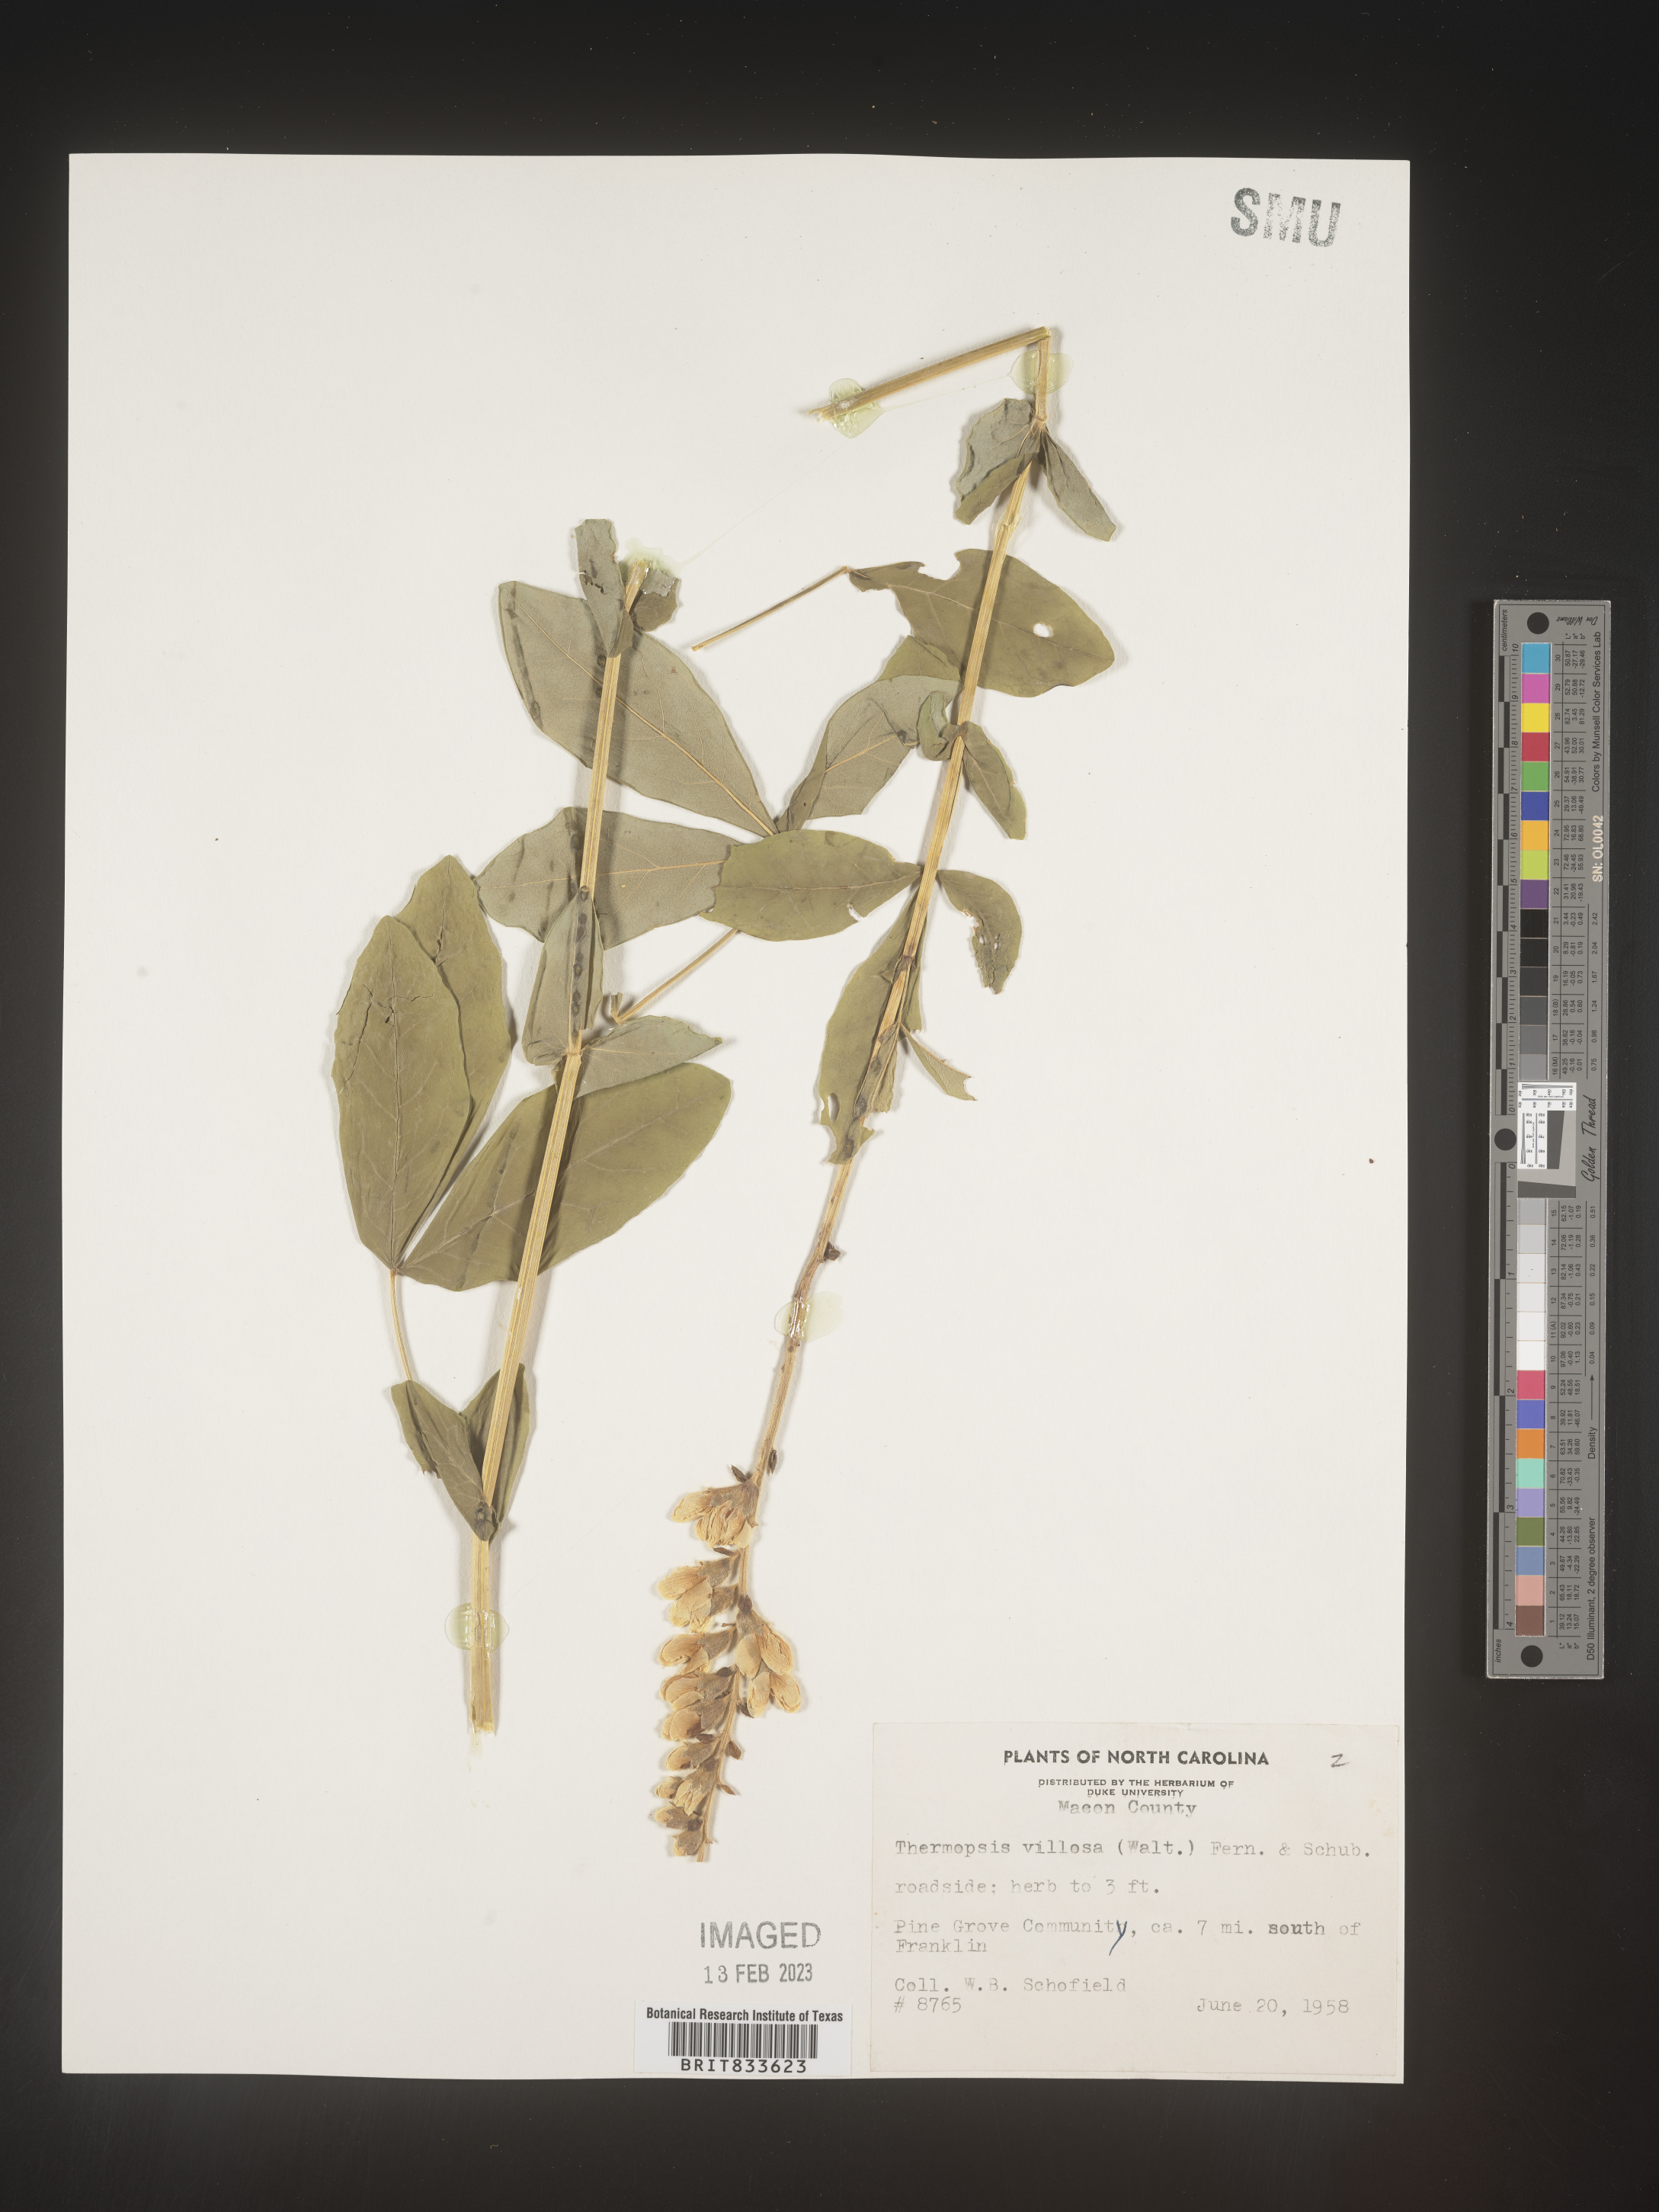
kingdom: Plantae
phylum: Tracheophyta
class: Magnoliopsida
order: Fabales
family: Fabaceae
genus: Thermopsis
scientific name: Thermopsis villosa
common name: Carolina-lupin
